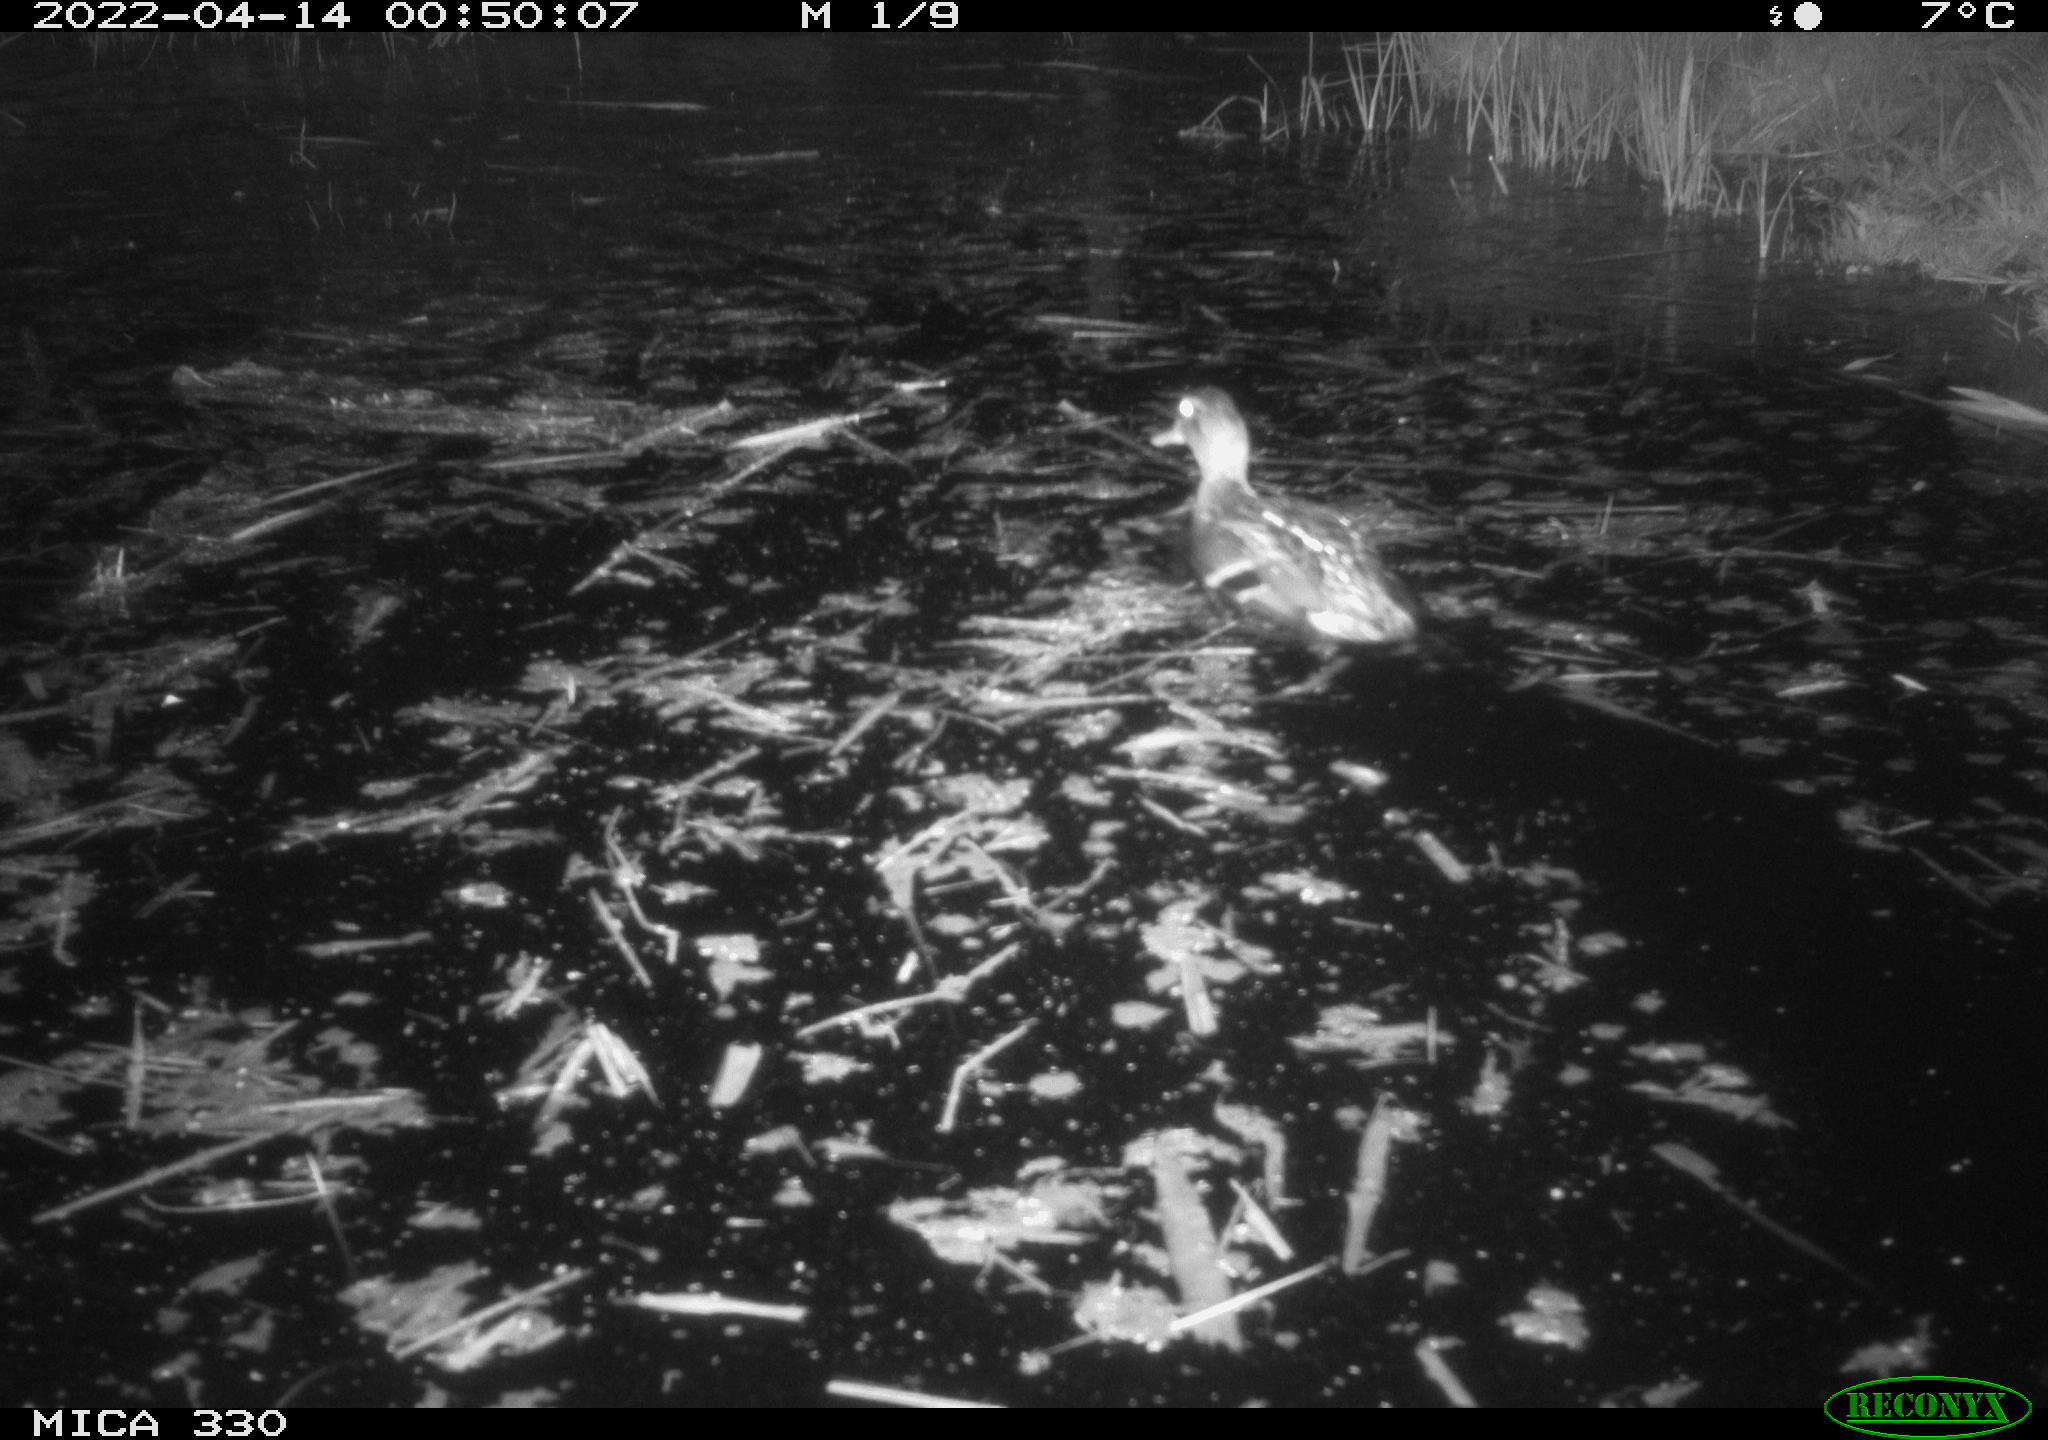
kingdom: Animalia
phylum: Chordata
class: Aves
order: Anseriformes
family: Anatidae
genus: Anas
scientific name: Anas platyrhynchos
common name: Mallard
